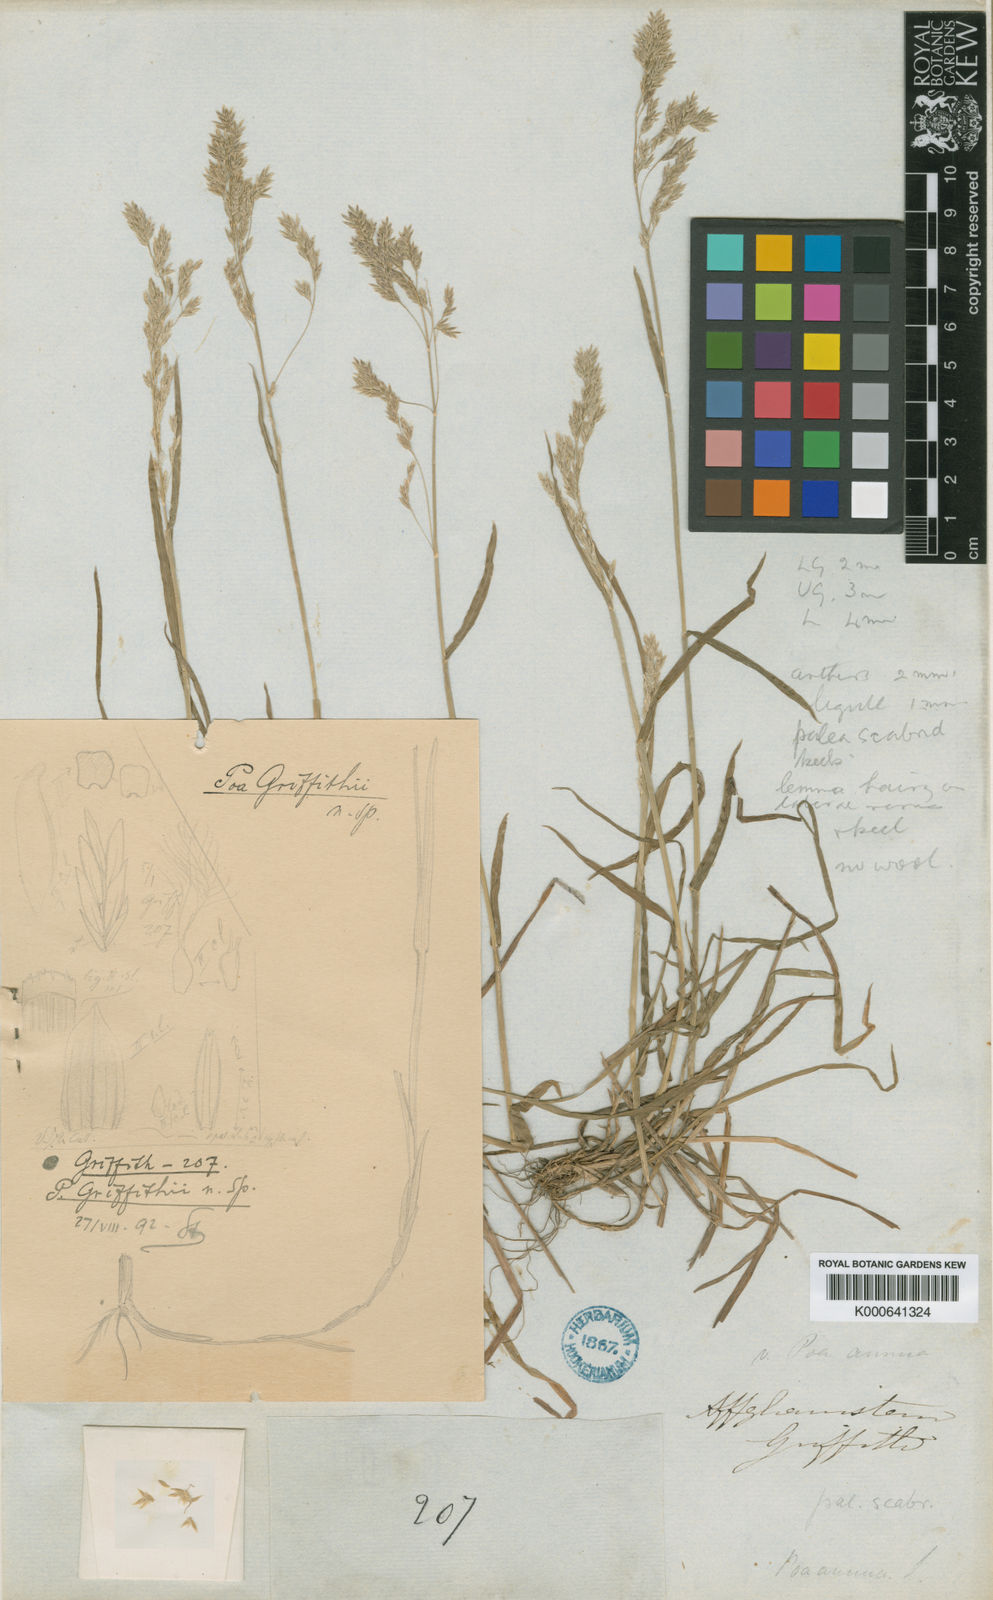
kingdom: Plantae
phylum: Tracheophyta
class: Liliopsida
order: Poales
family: Poaceae
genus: Poa
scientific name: Poa aitchisonii
